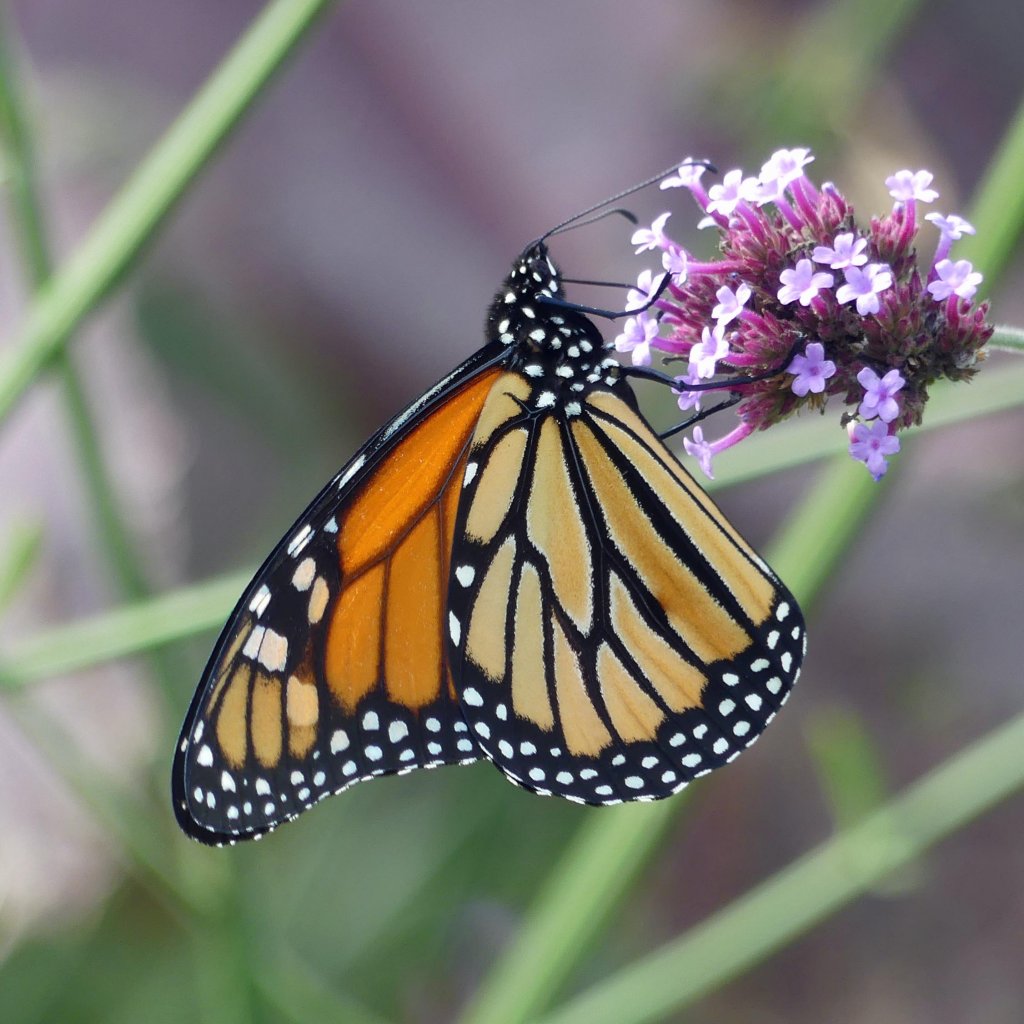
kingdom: Animalia
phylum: Arthropoda
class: Insecta
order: Lepidoptera
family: Nymphalidae
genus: Danaus
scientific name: Danaus plexippus
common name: Monarch
